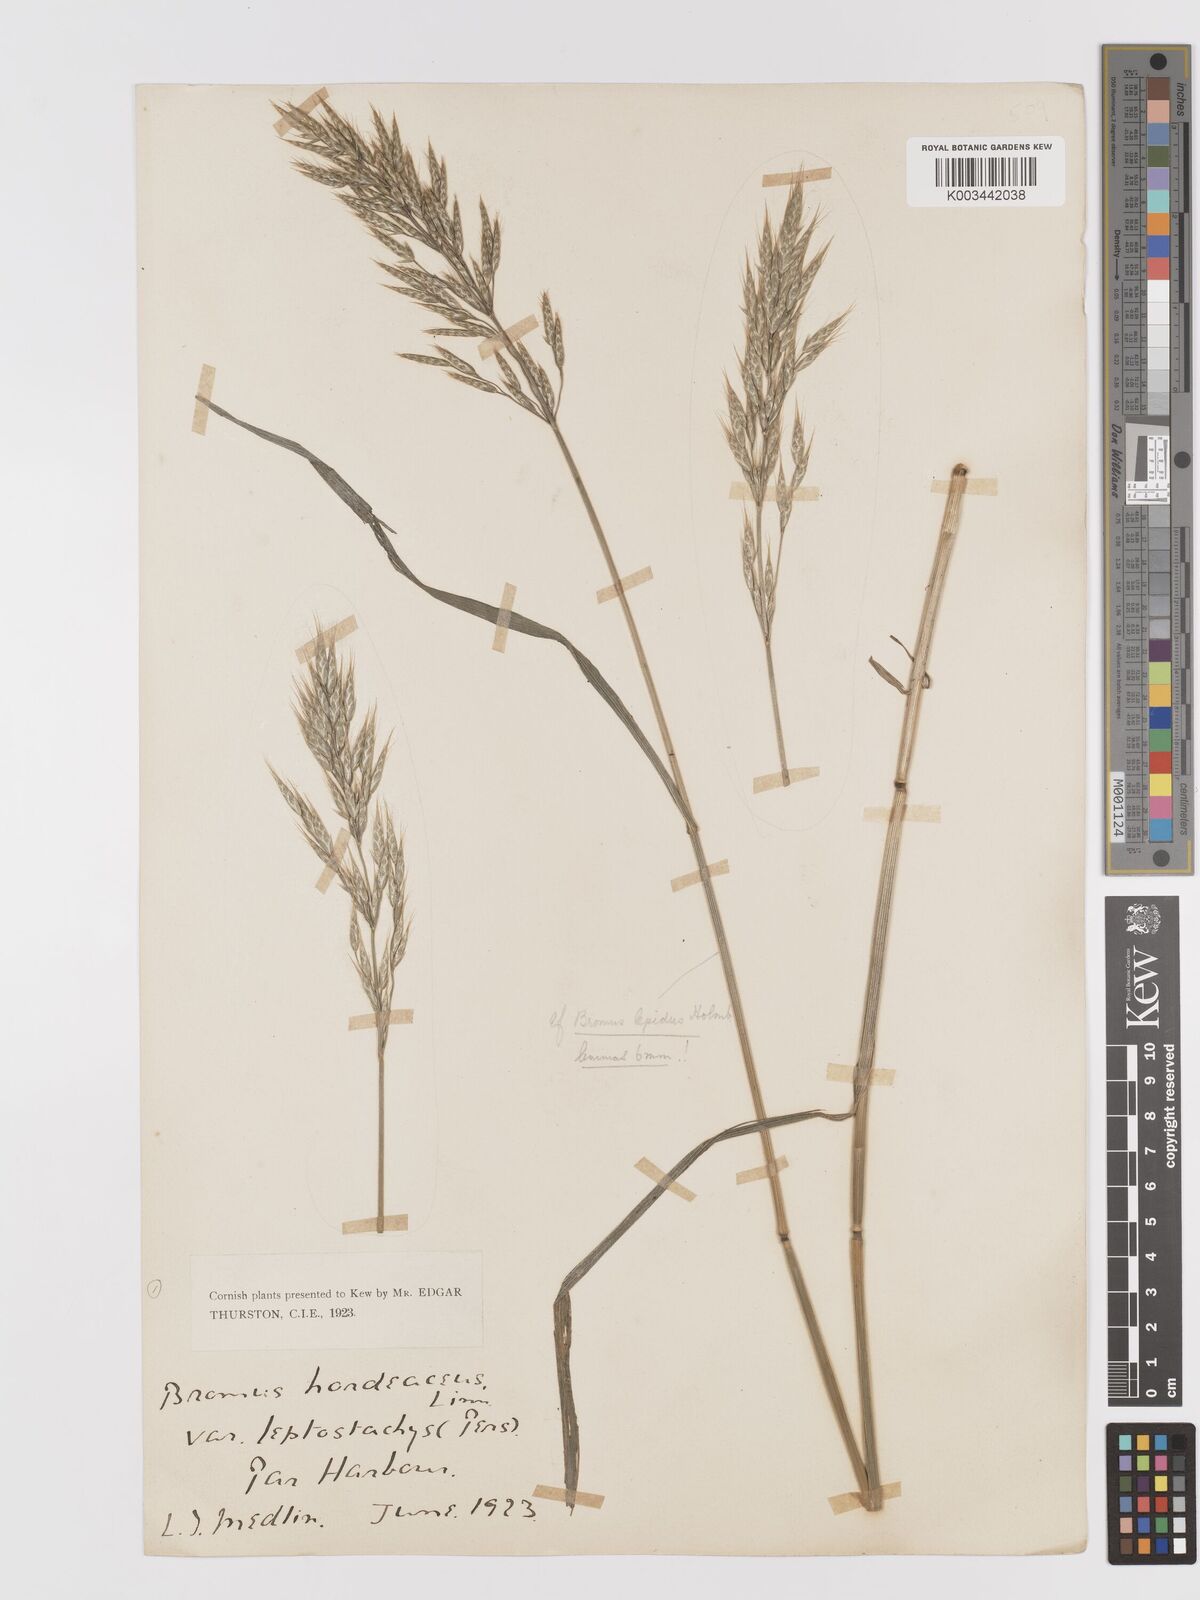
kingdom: Plantae
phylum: Tracheophyta
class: Liliopsida
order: Poales
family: Poaceae
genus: Bromus
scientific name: Bromus lepidus
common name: Slender soft-brome
